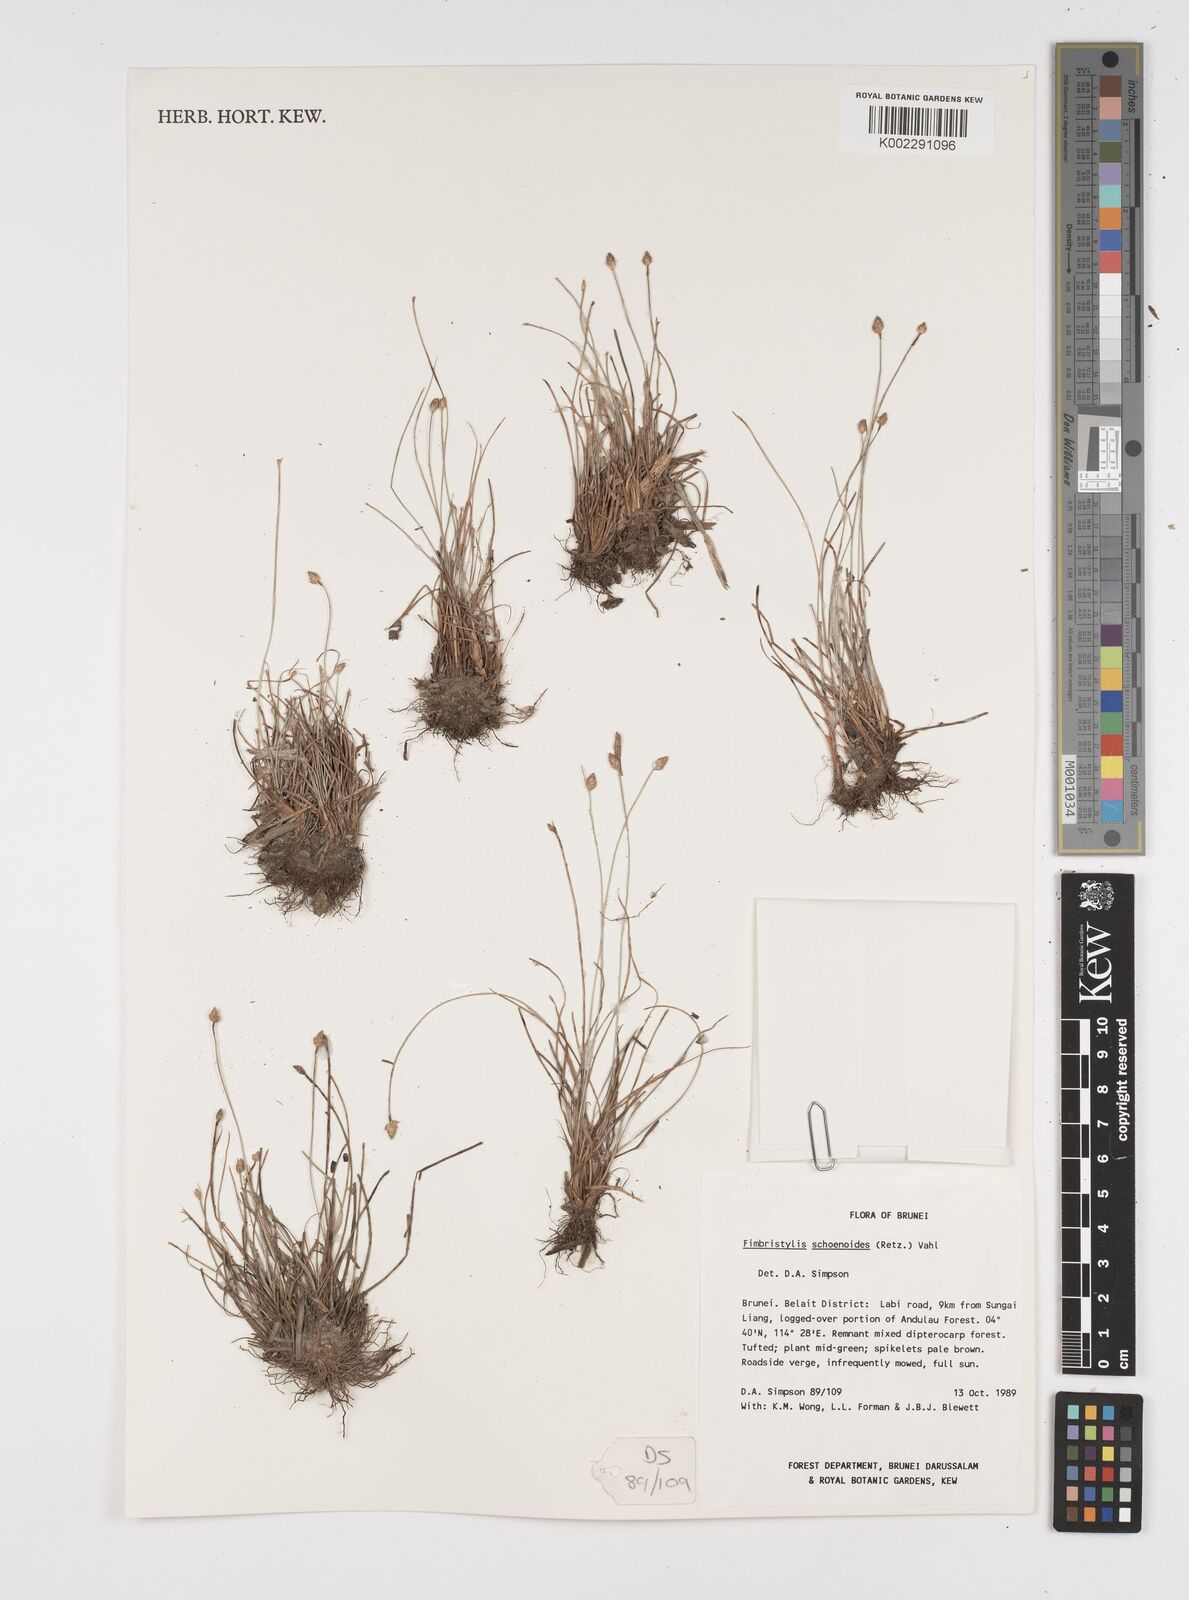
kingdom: Plantae
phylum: Tracheophyta
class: Liliopsida
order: Poales
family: Cyperaceae
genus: Fimbristylis
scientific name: Fimbristylis schoenoides
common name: Ditch fimbry
